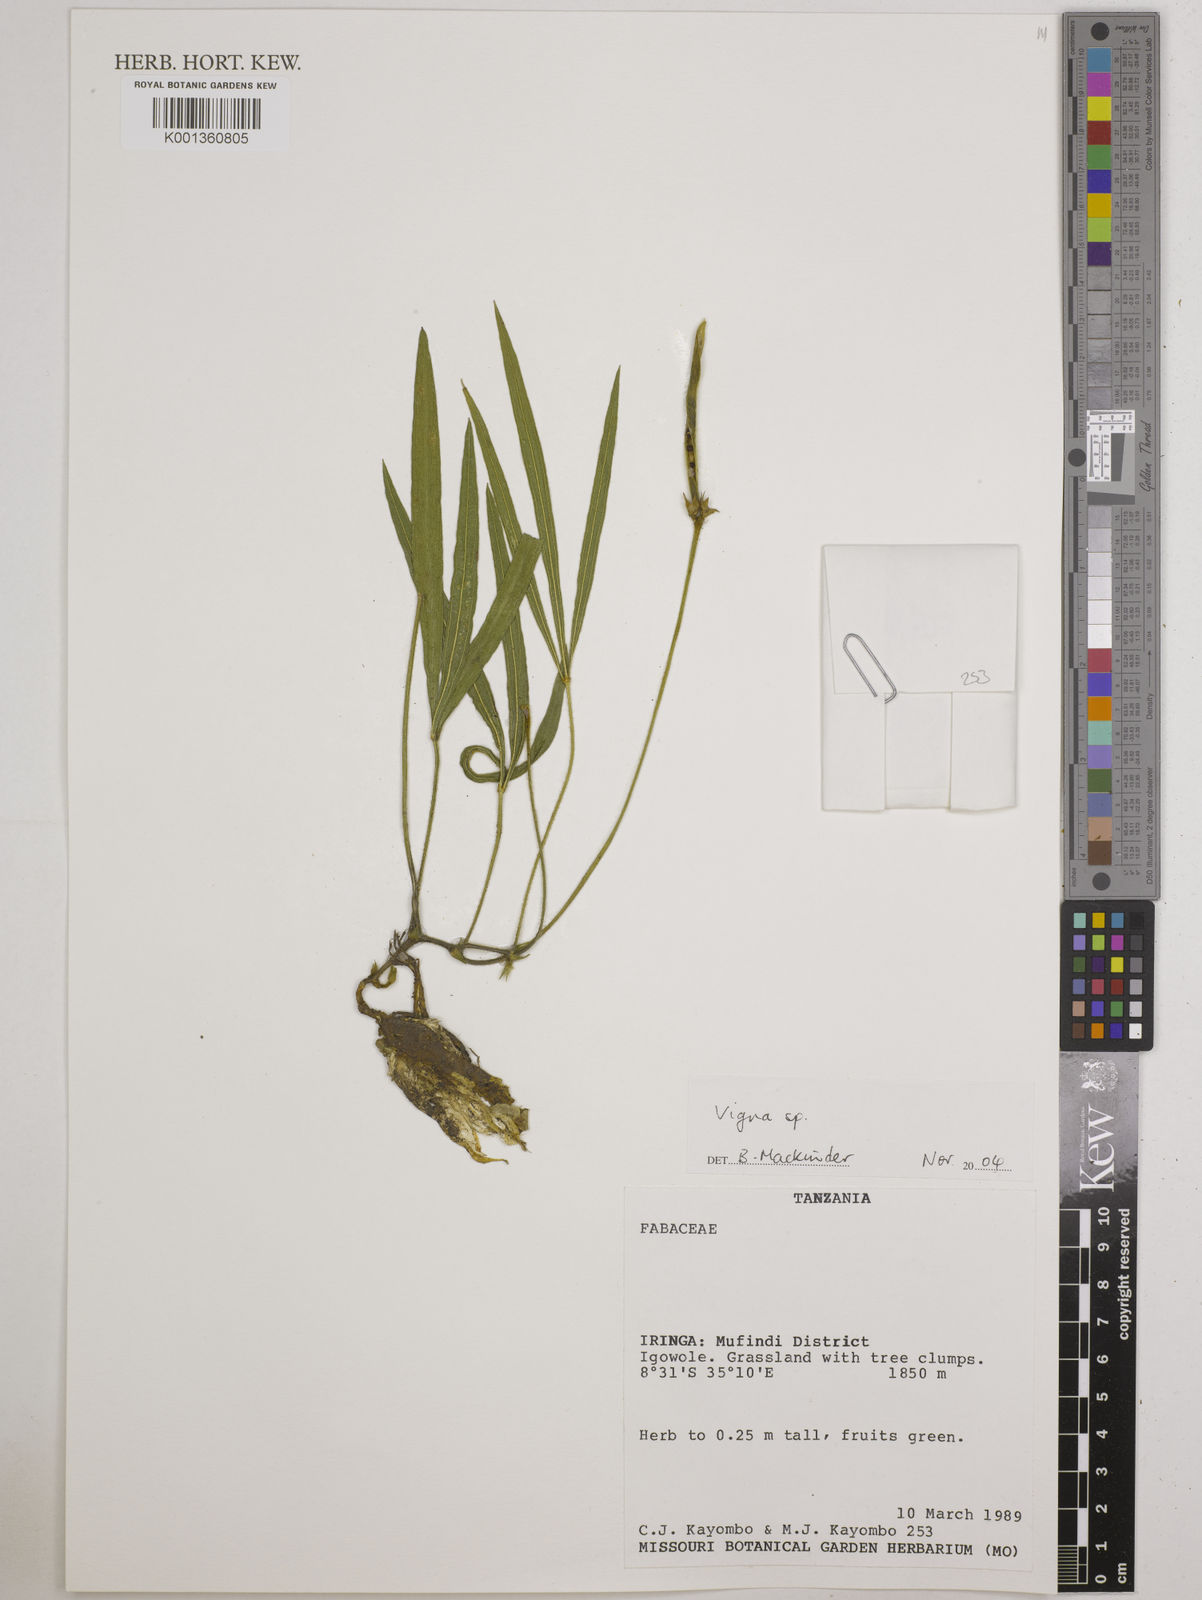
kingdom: Plantae
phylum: Tracheophyta
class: Magnoliopsida
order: Fabales
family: Fabaceae
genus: Vigna
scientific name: Vigna
